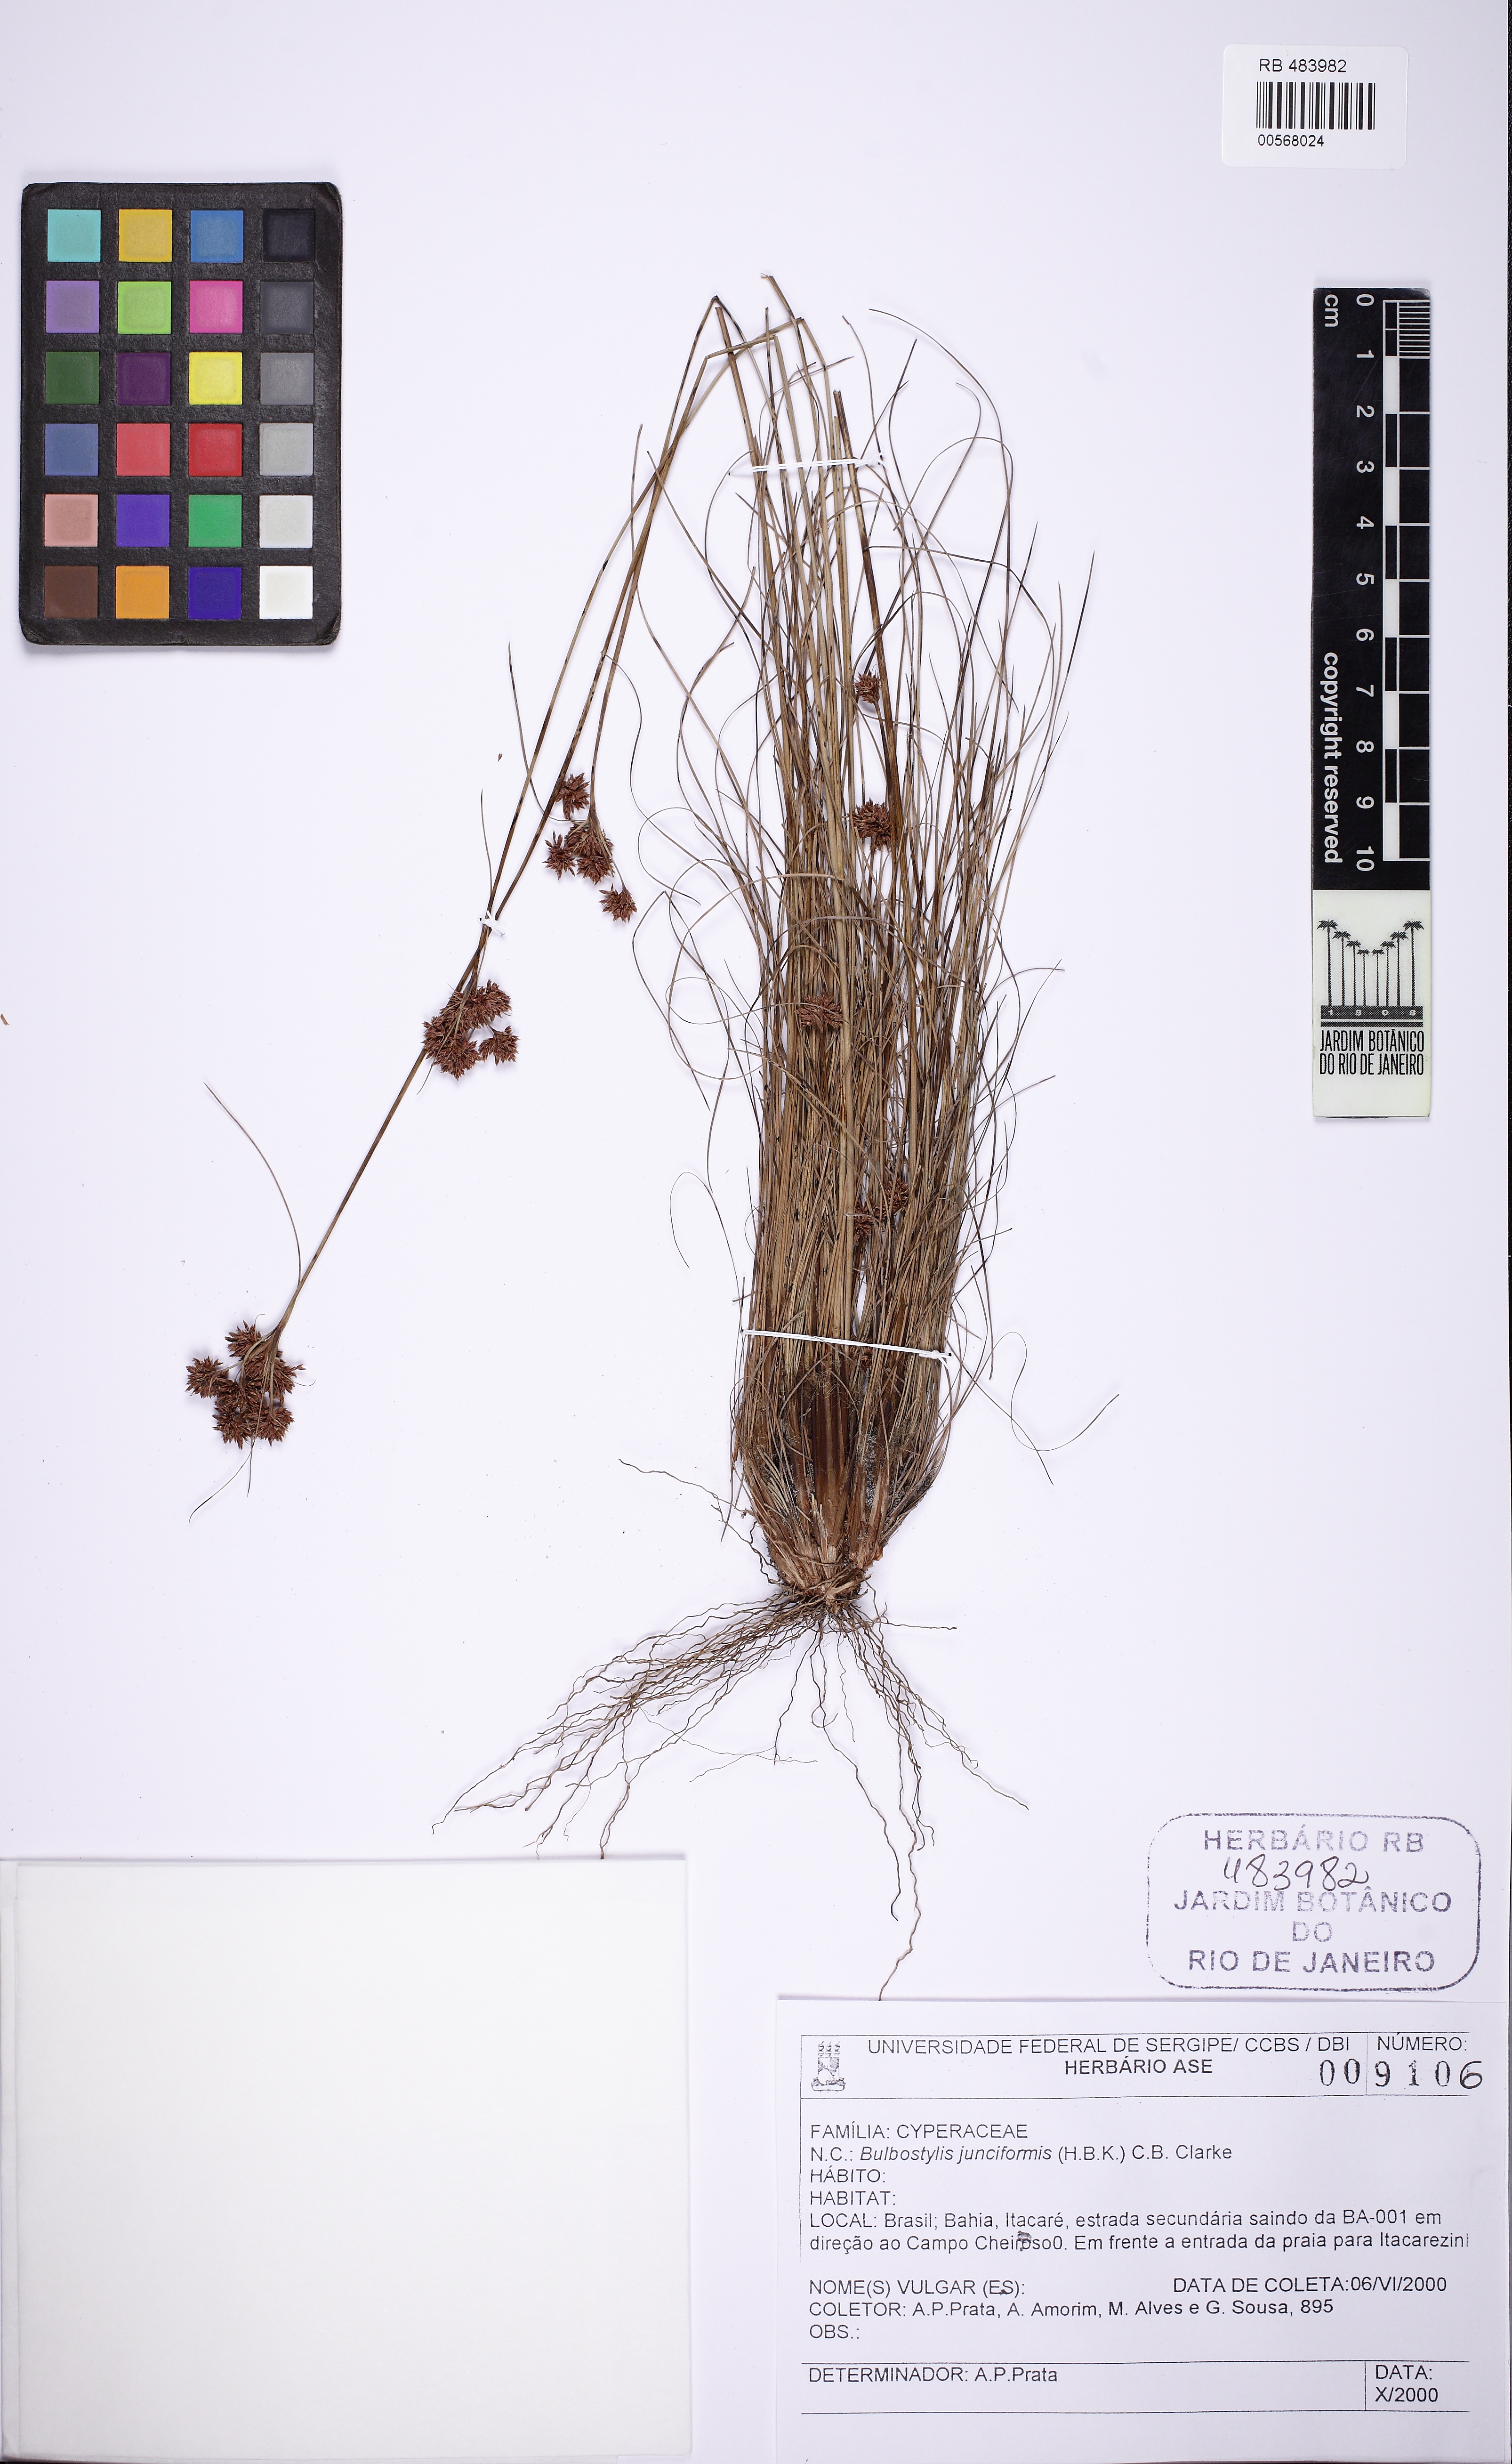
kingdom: Plantae
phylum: Tracheophyta
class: Liliopsida
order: Poales
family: Cyperaceae
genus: Bulbostylis
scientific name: Bulbostylis junciformis
